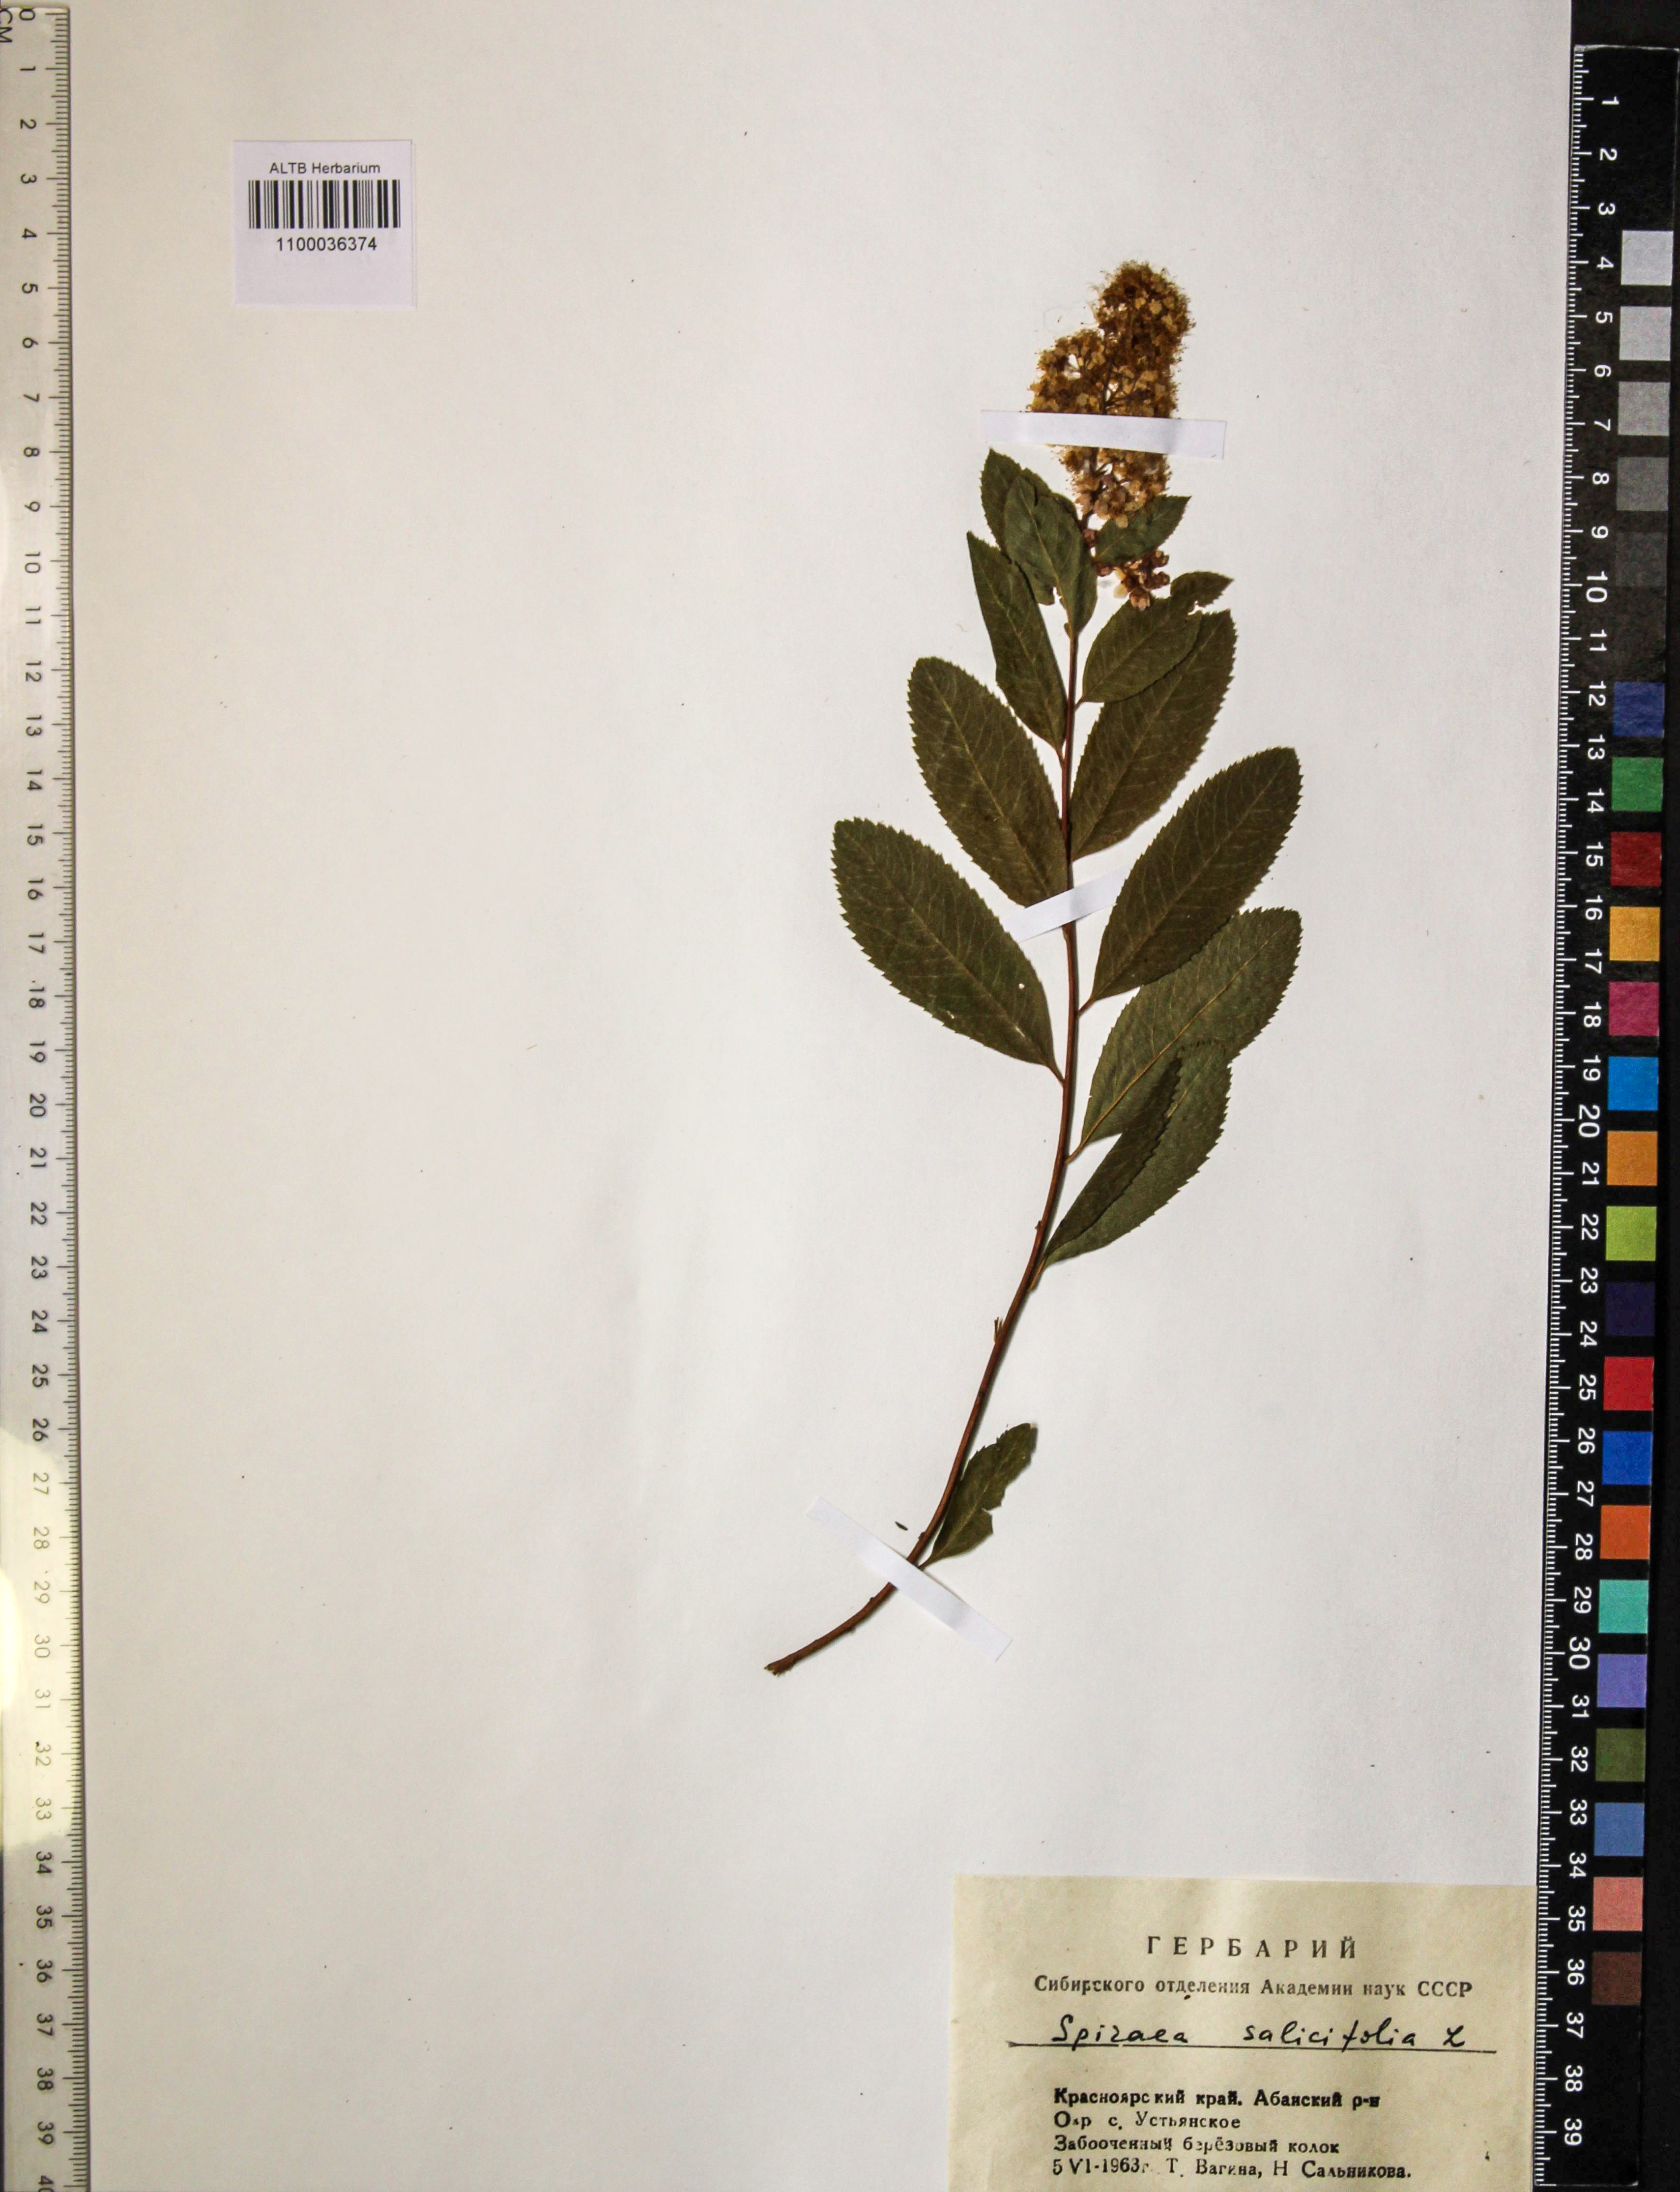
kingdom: Plantae
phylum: Tracheophyta
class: Magnoliopsida
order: Rosales
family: Rosaceae
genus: Spiraea
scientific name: Spiraea salicifolia
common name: Bridewort
